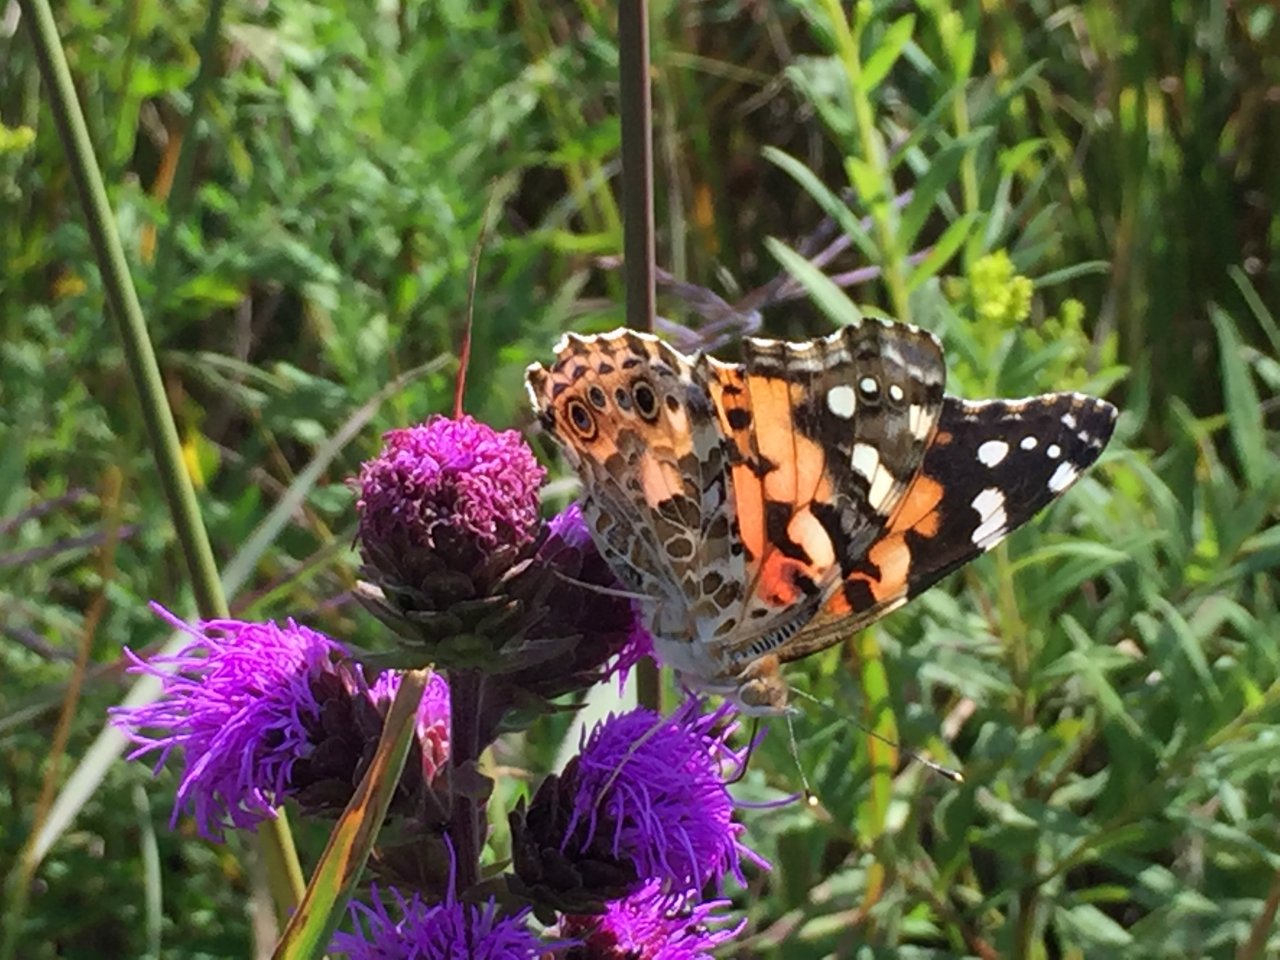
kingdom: Animalia
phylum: Arthropoda
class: Insecta
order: Lepidoptera
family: Nymphalidae
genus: Vanessa
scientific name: Vanessa cardui
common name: Painted Lady
